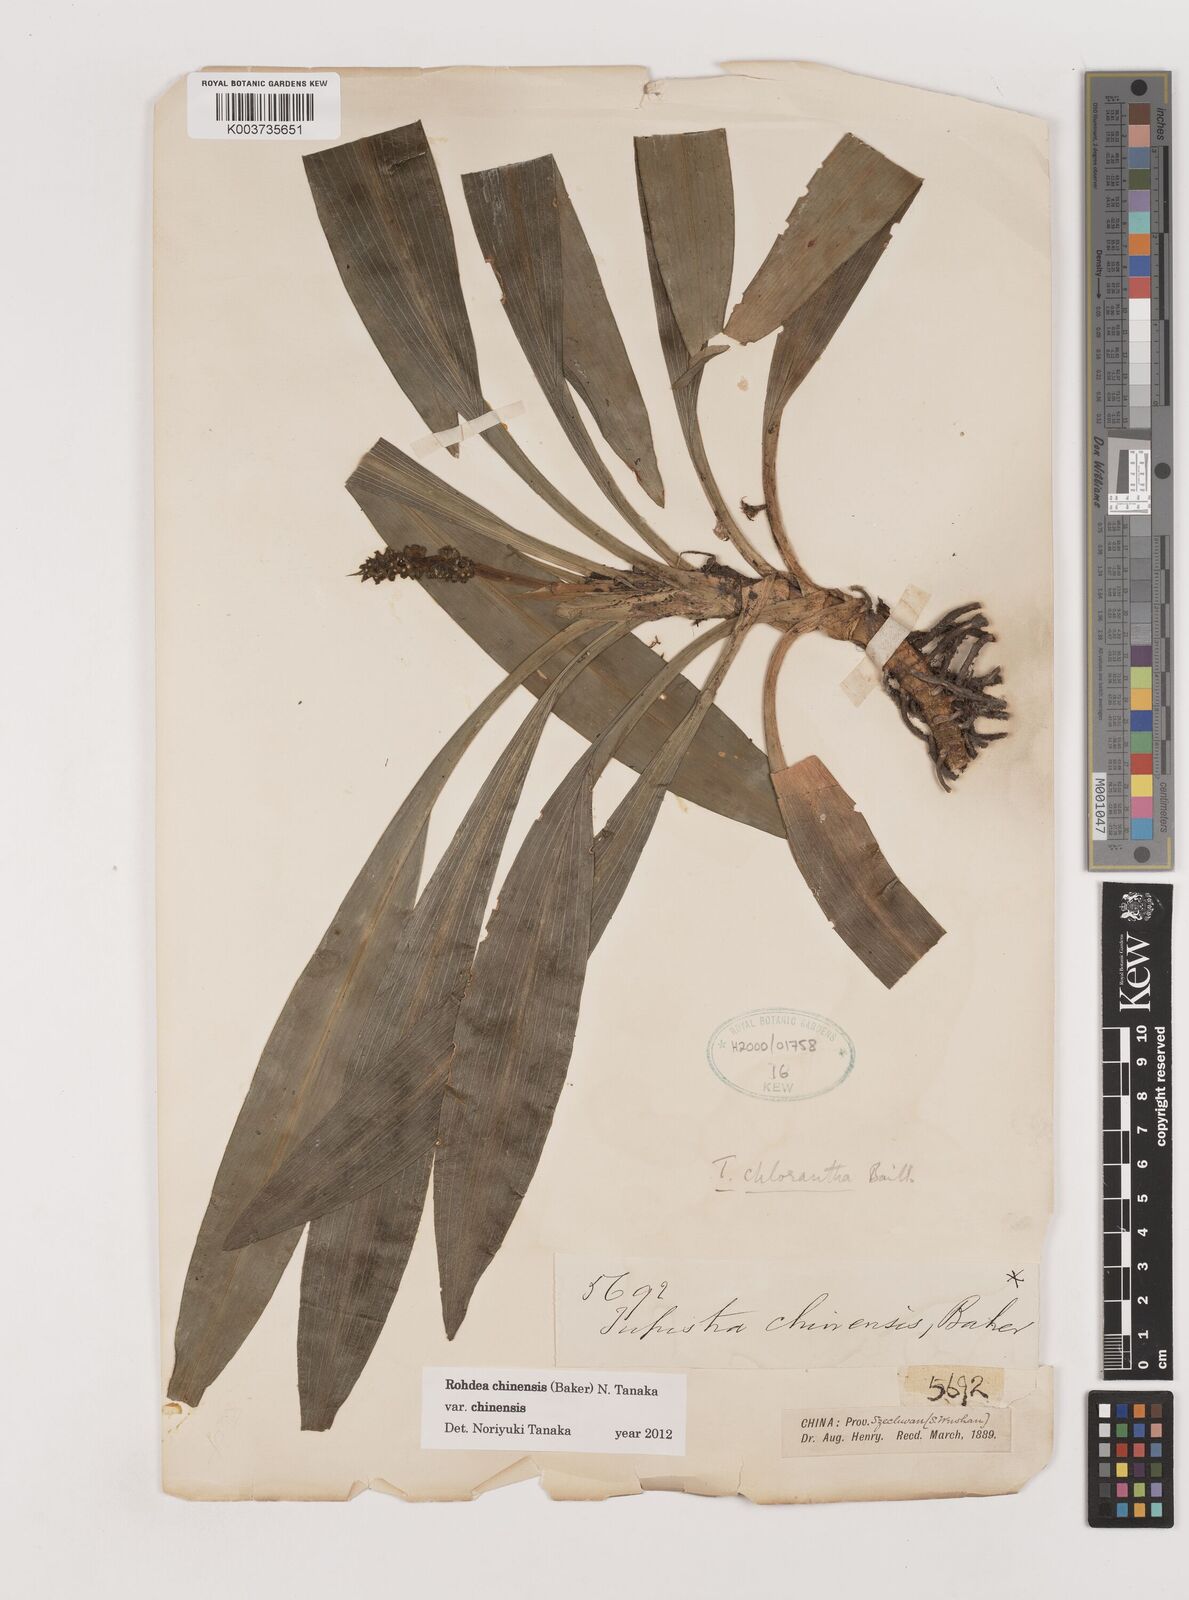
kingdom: Plantae
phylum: Tracheophyta
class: Liliopsida
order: Asparagales
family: Asparagaceae
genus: Rohdea
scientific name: Rohdea fargesii
